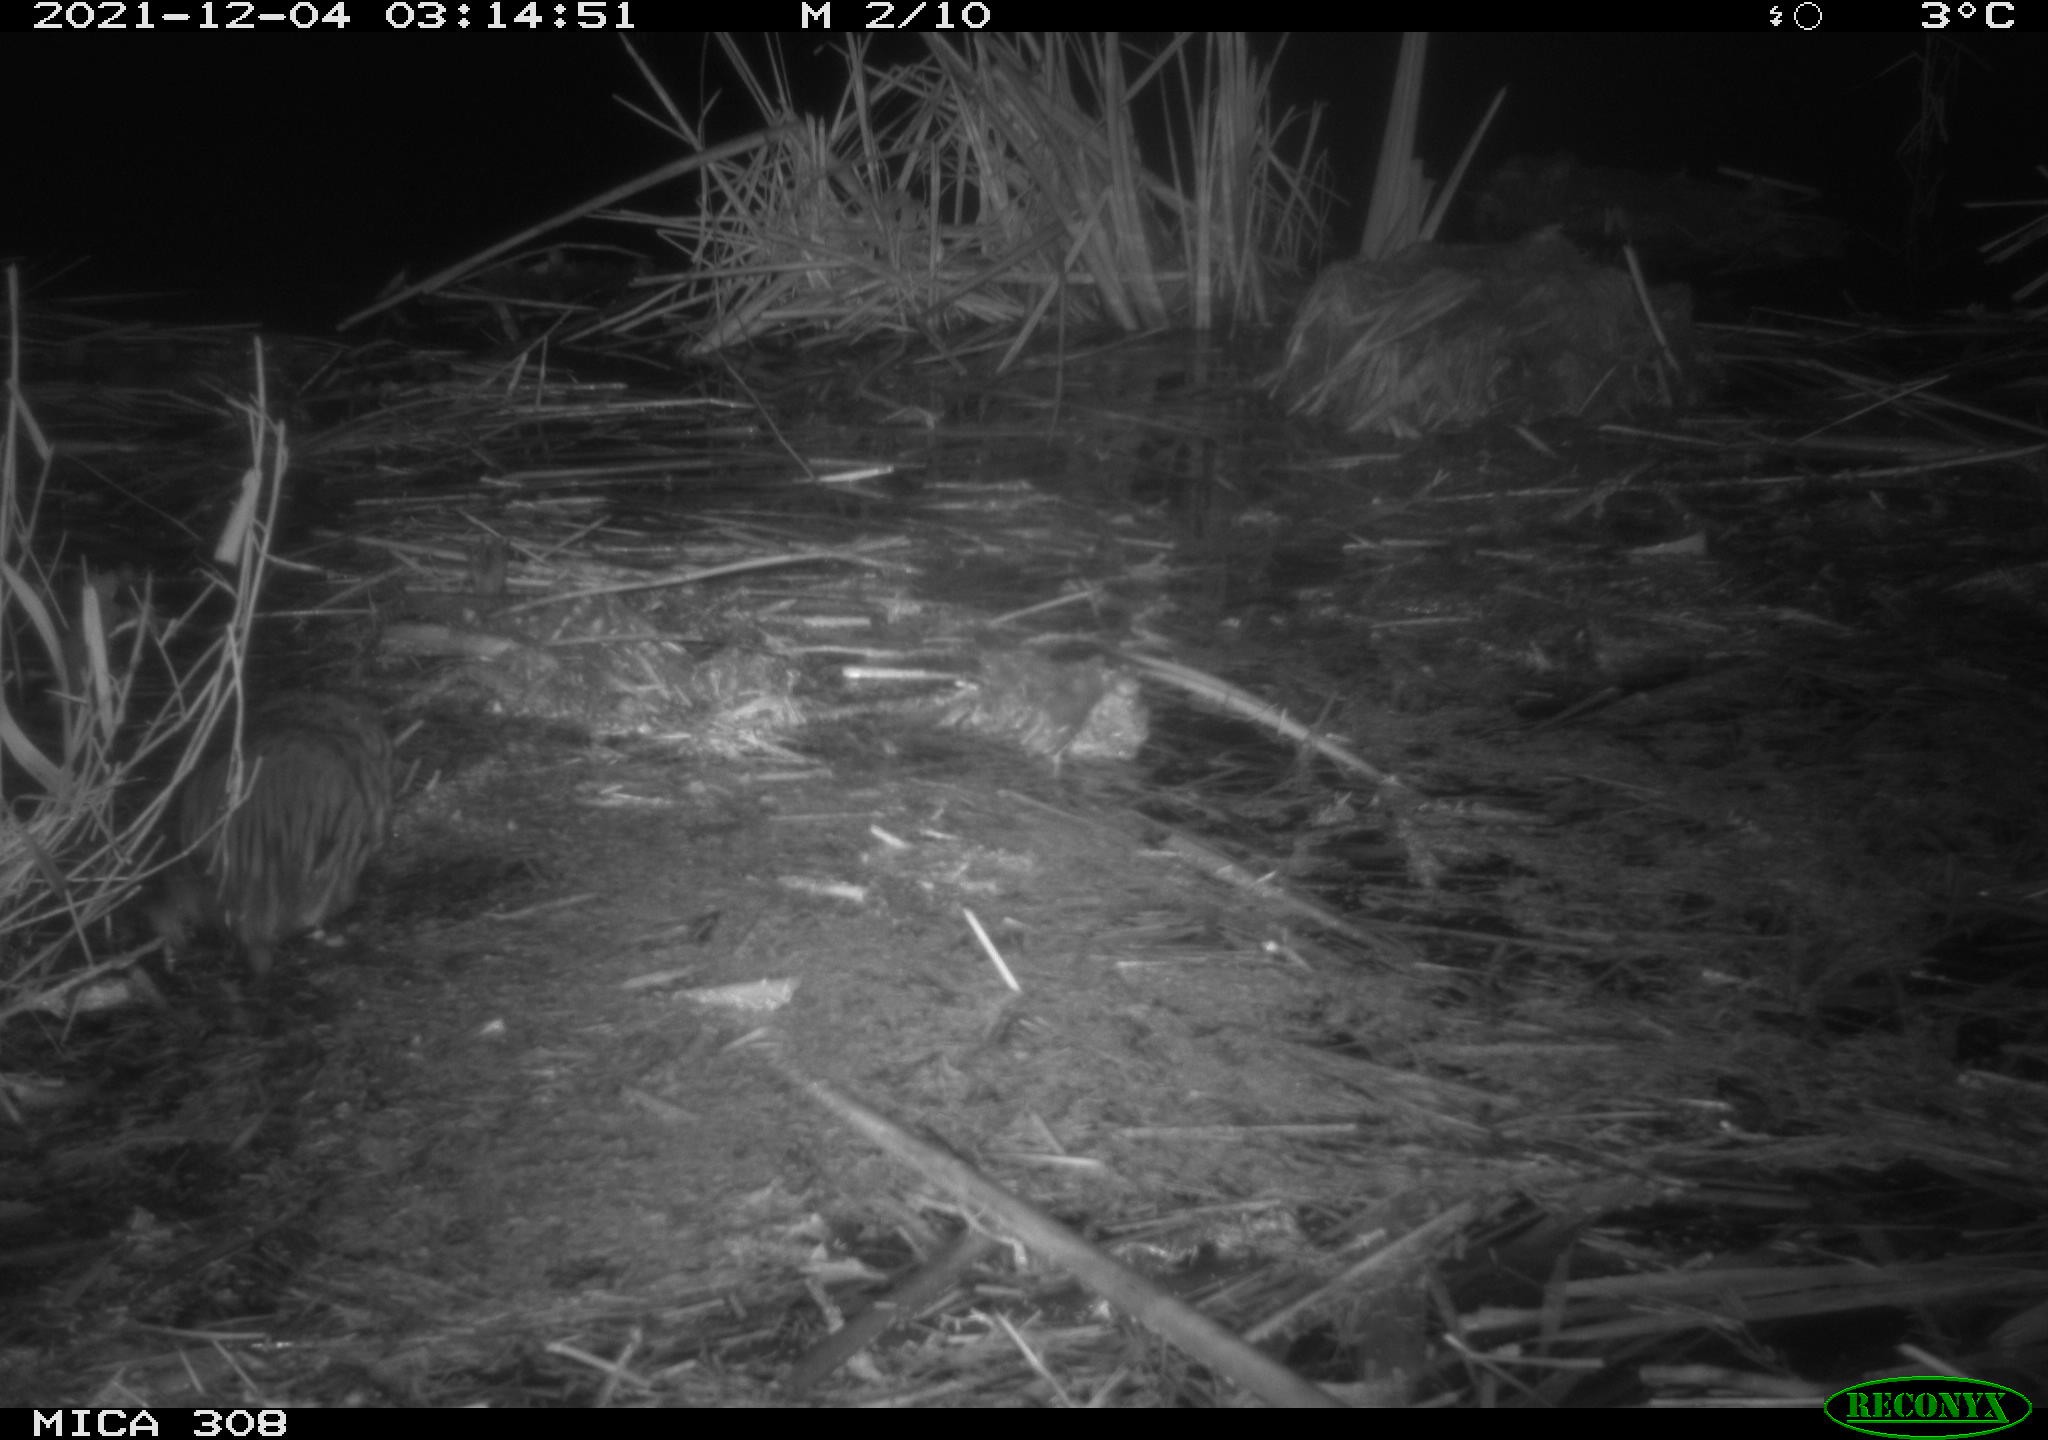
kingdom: Animalia
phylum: Chordata
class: Mammalia
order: Rodentia
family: Cricetidae
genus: Ondatra
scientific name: Ondatra zibethicus
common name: Muskrat
